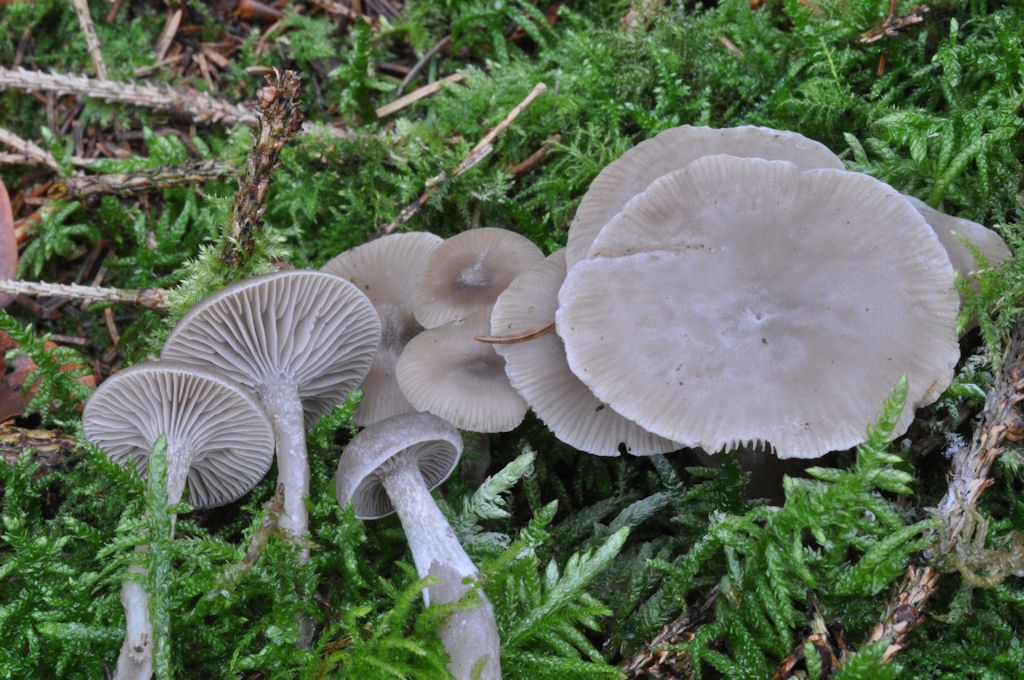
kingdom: Fungi
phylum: Ascomycota
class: Sordariomycetes
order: Xylariales
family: Xylariaceae
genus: Xylaria
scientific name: Xylaria hypoxylon
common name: grenet stødsvamp
